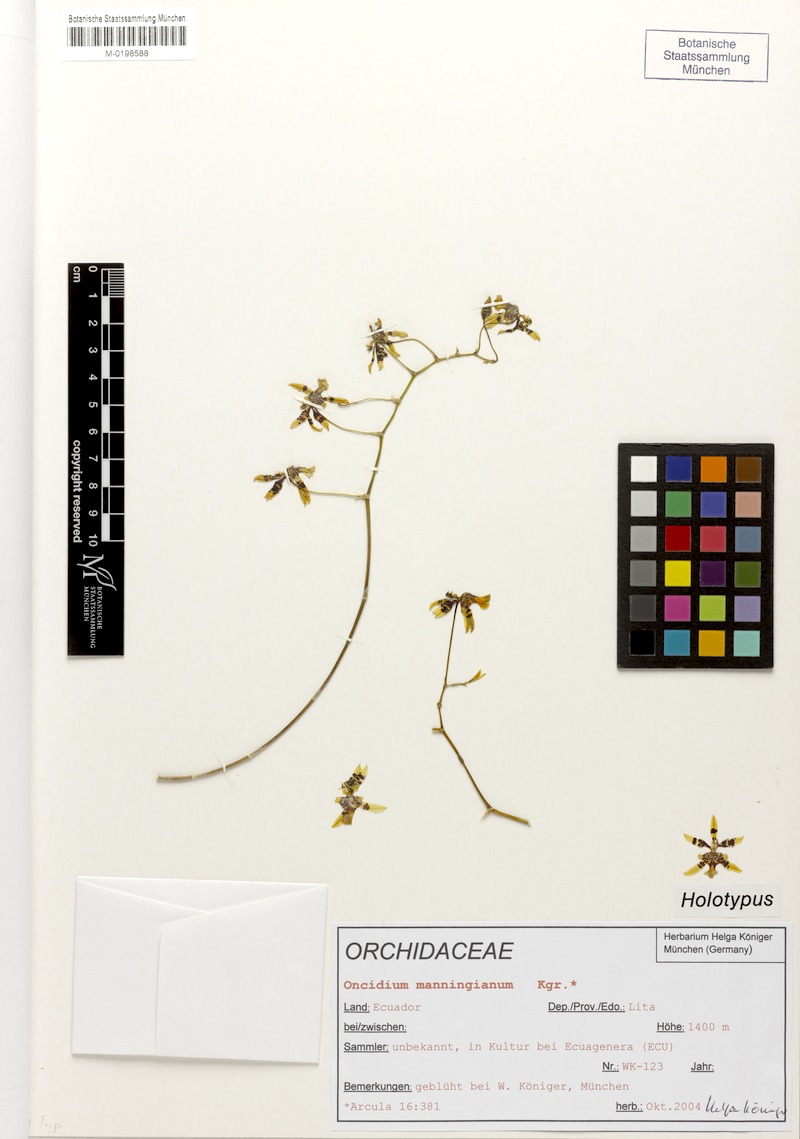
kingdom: Plantae
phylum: Tracheophyta
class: Liliopsida
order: Asparagales
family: Orchidaceae
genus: Oncidium
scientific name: Oncidium manningianum
